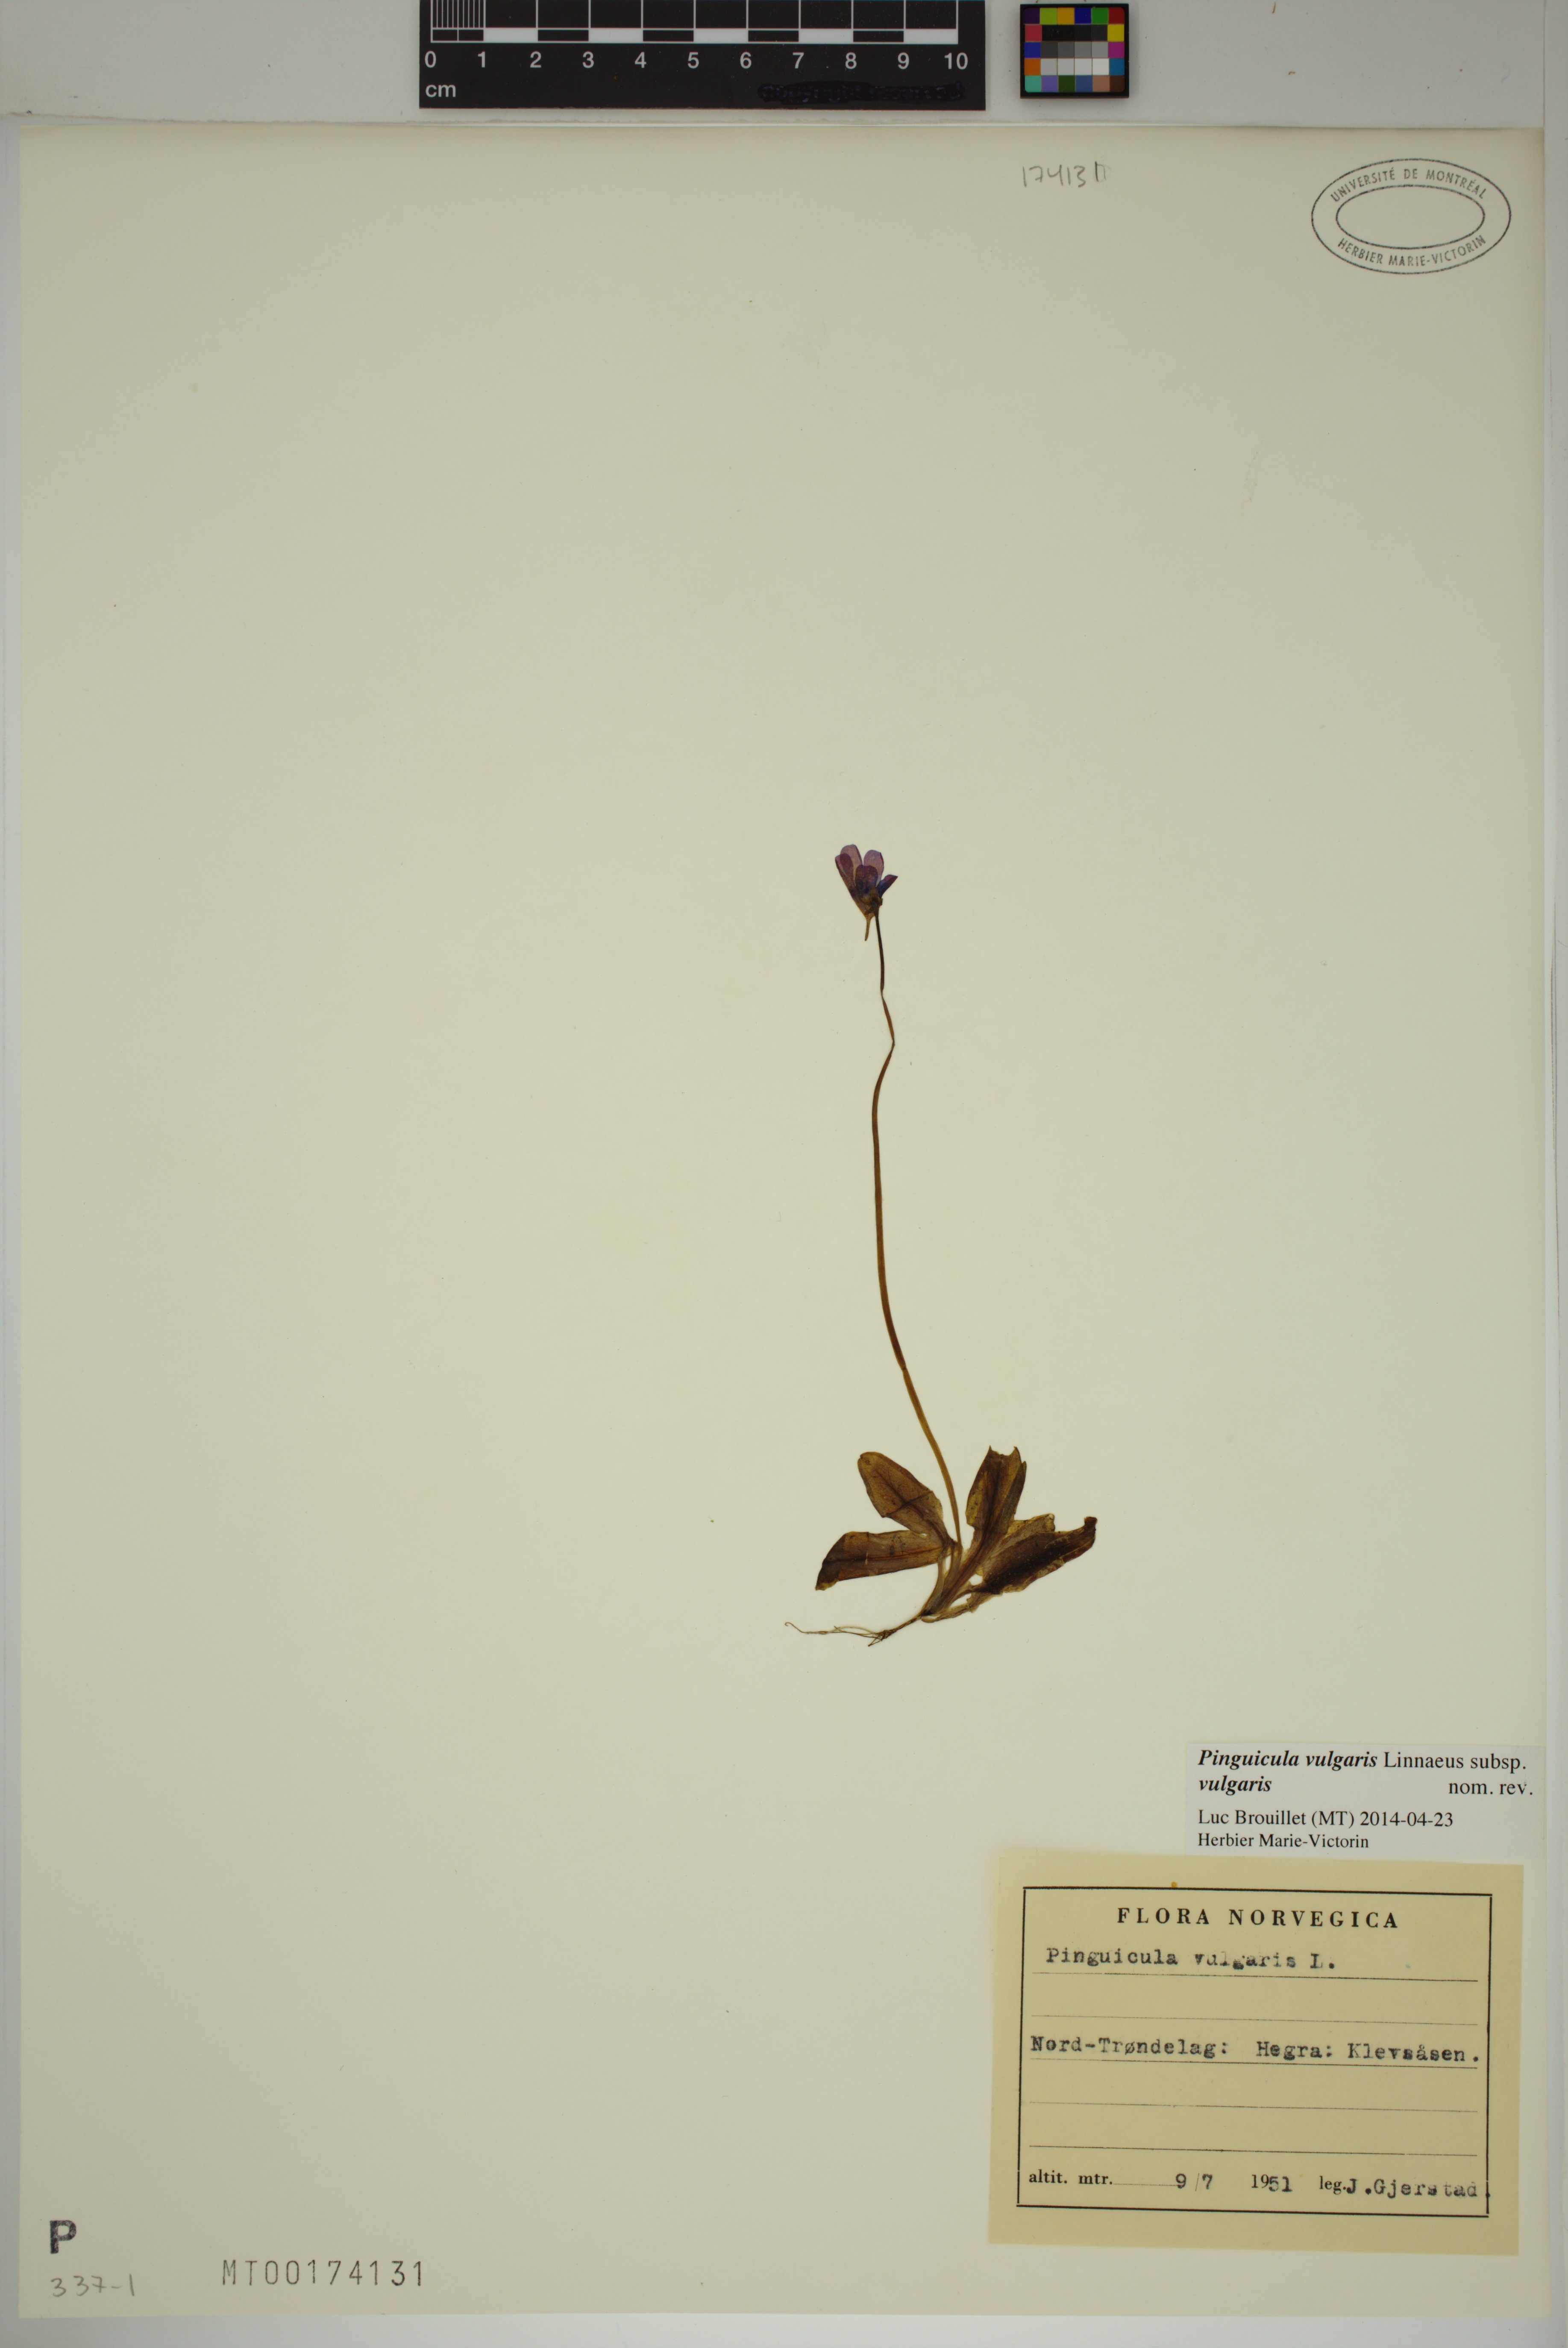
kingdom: Plantae
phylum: Tracheophyta
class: Magnoliopsida
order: Lamiales
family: Lentibulariaceae
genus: Pinguicula
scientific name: Pinguicula vulgaris
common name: Common butterwort
